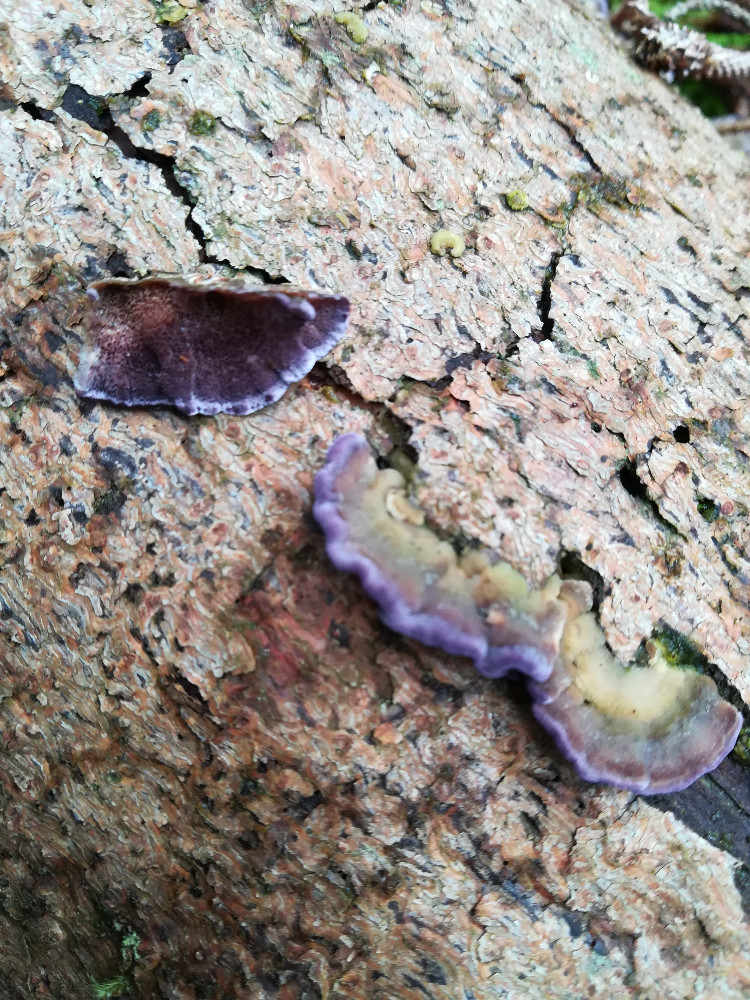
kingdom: Fungi
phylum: Basidiomycota
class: Agaricomycetes
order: Hymenochaetales
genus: Trichaptum
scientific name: Trichaptum abietinum
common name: almindelig violporesvamp
